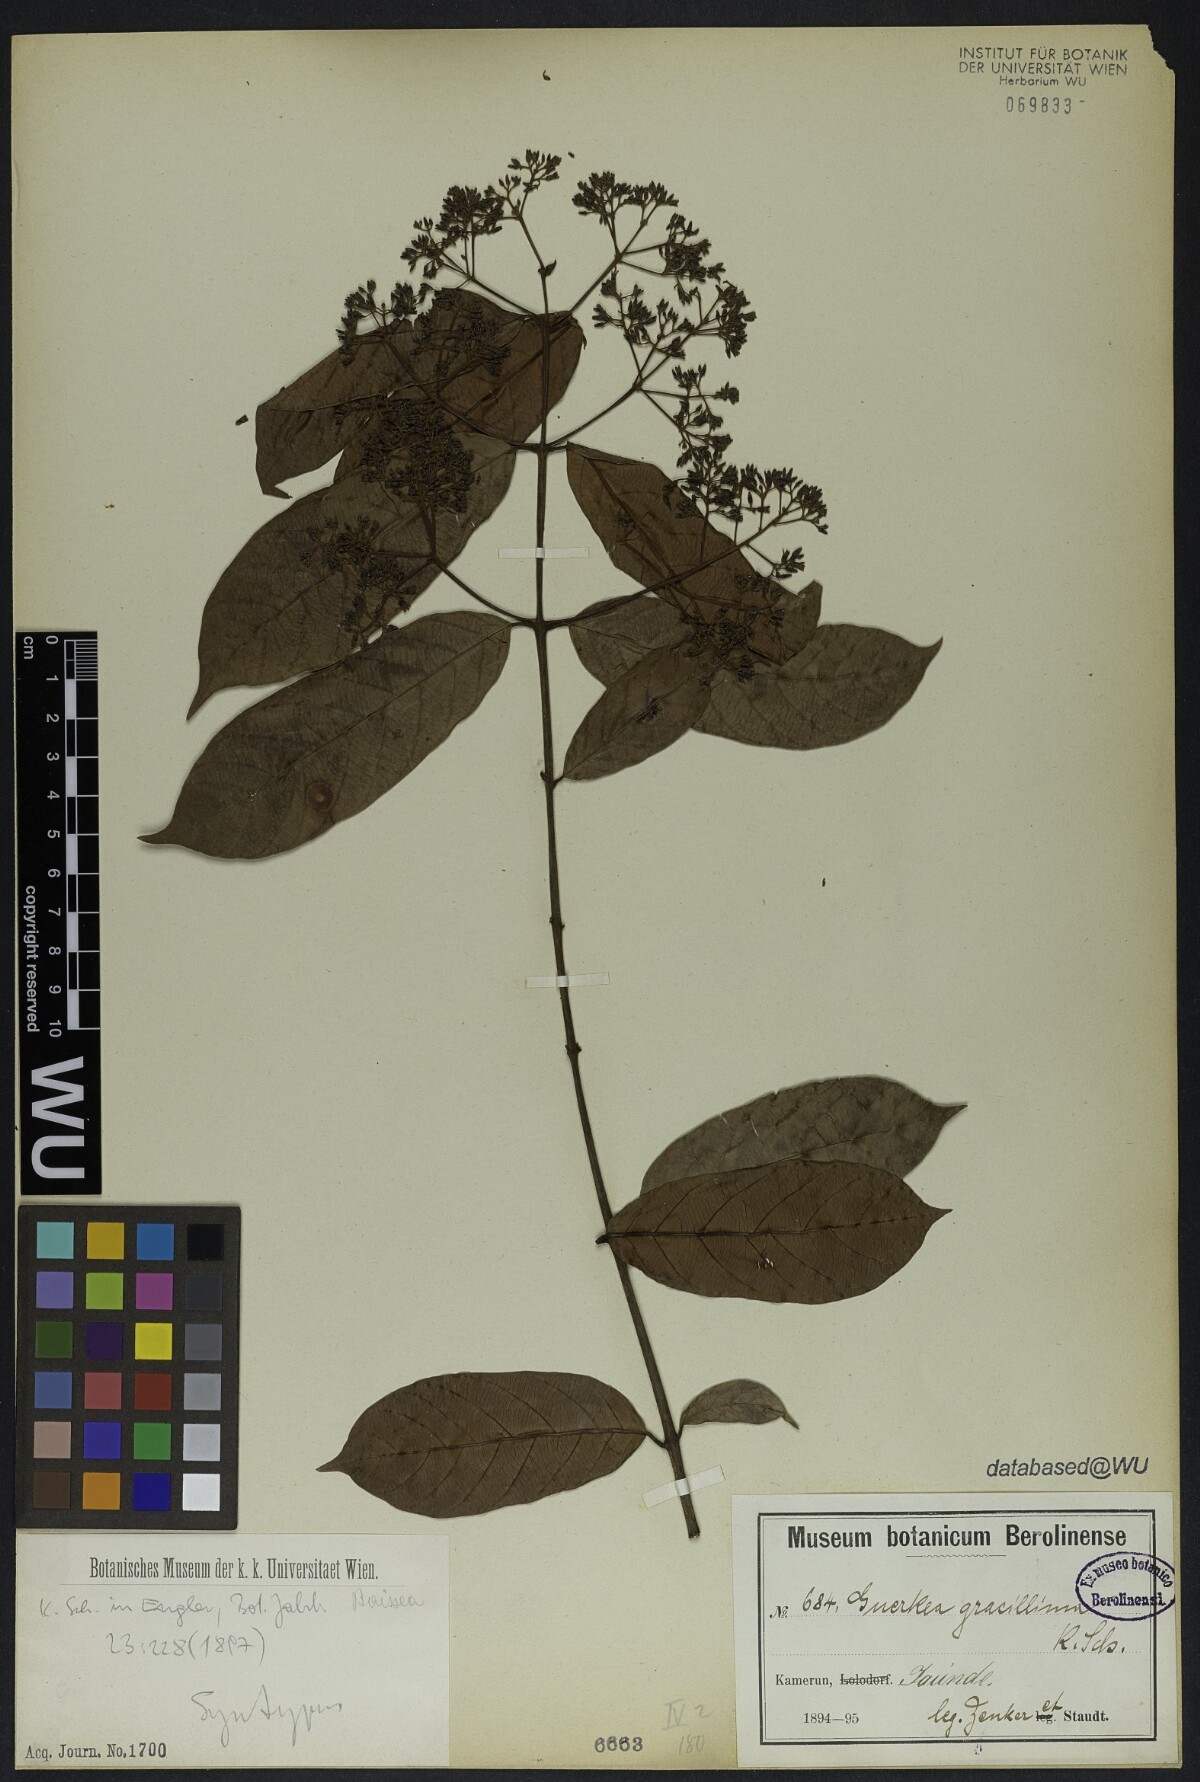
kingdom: Plantae
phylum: Tracheophyta
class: Magnoliopsida
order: Gentianales
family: Apocynaceae
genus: Baissea
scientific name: Baissea gracillima
